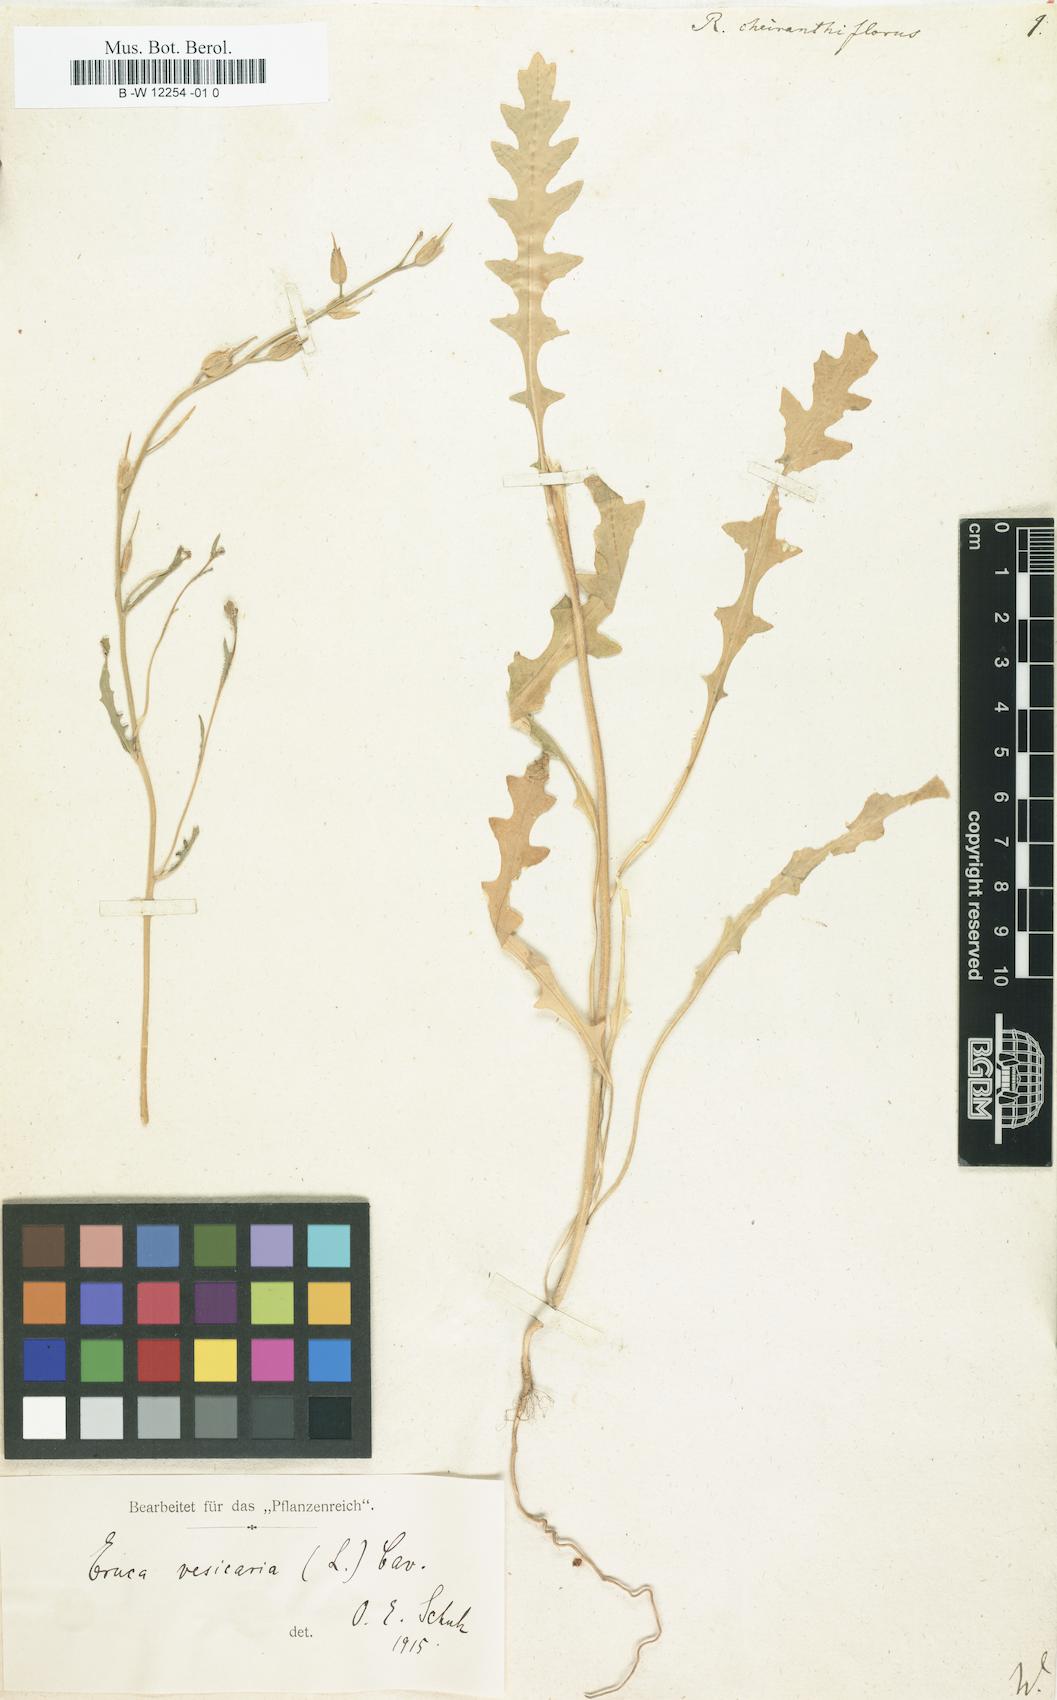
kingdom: Plantae
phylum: Tracheophyta
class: Magnoliopsida
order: Brassicales
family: Brassicaceae
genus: Coincya
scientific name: Coincya monensis
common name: Star-mustard
